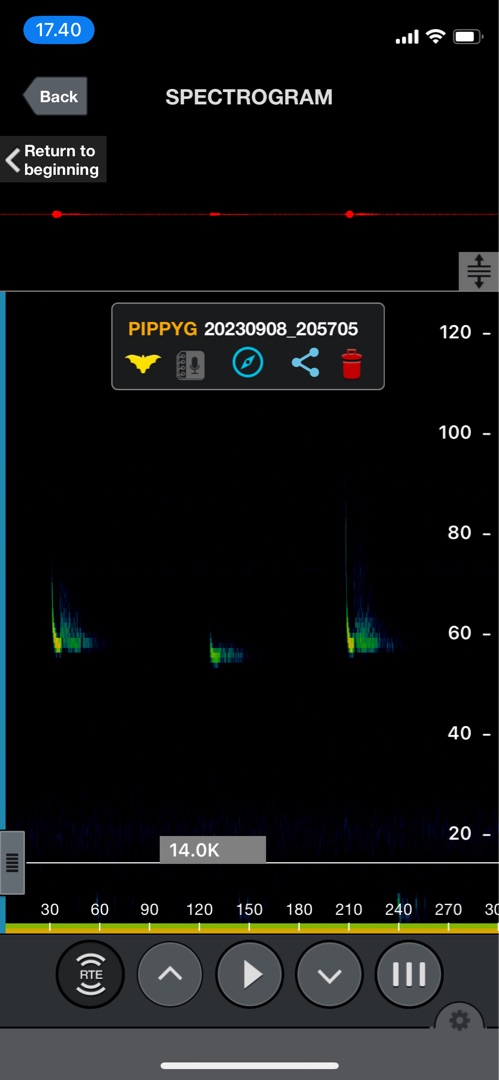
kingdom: Animalia
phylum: Chordata
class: Mammalia
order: Chiroptera
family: Vespertilionidae
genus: Pipistrellus
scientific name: Pipistrellus pygmaeus
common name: Dværgflagermus
